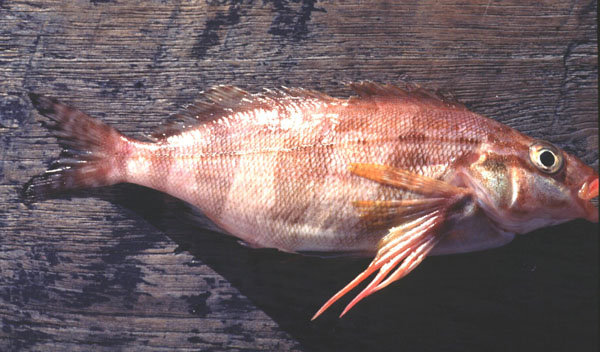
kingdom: Animalia
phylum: Chordata
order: Perciformes
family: Cheilodactylidae
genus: Cheilodactylus
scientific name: Cheilodactylus fasciatus
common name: Redfingers
